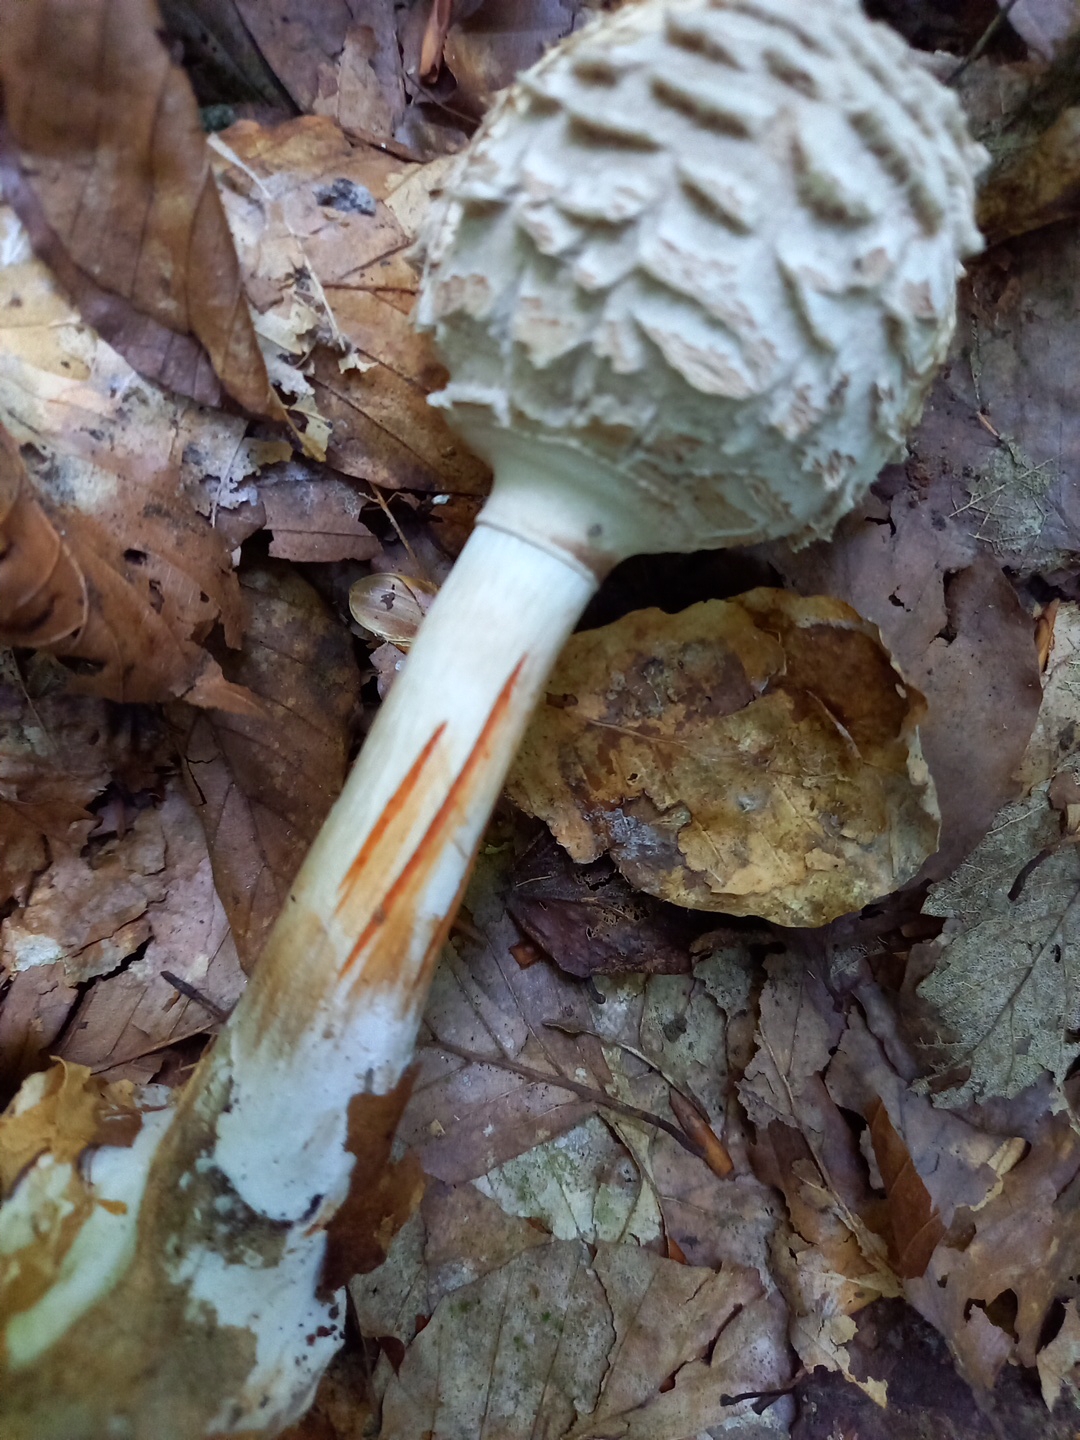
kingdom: Fungi
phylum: Basidiomycota
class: Agaricomycetes
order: Agaricales
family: Agaricaceae
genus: Chlorophyllum
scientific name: Chlorophyllum
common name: rabarberhat
